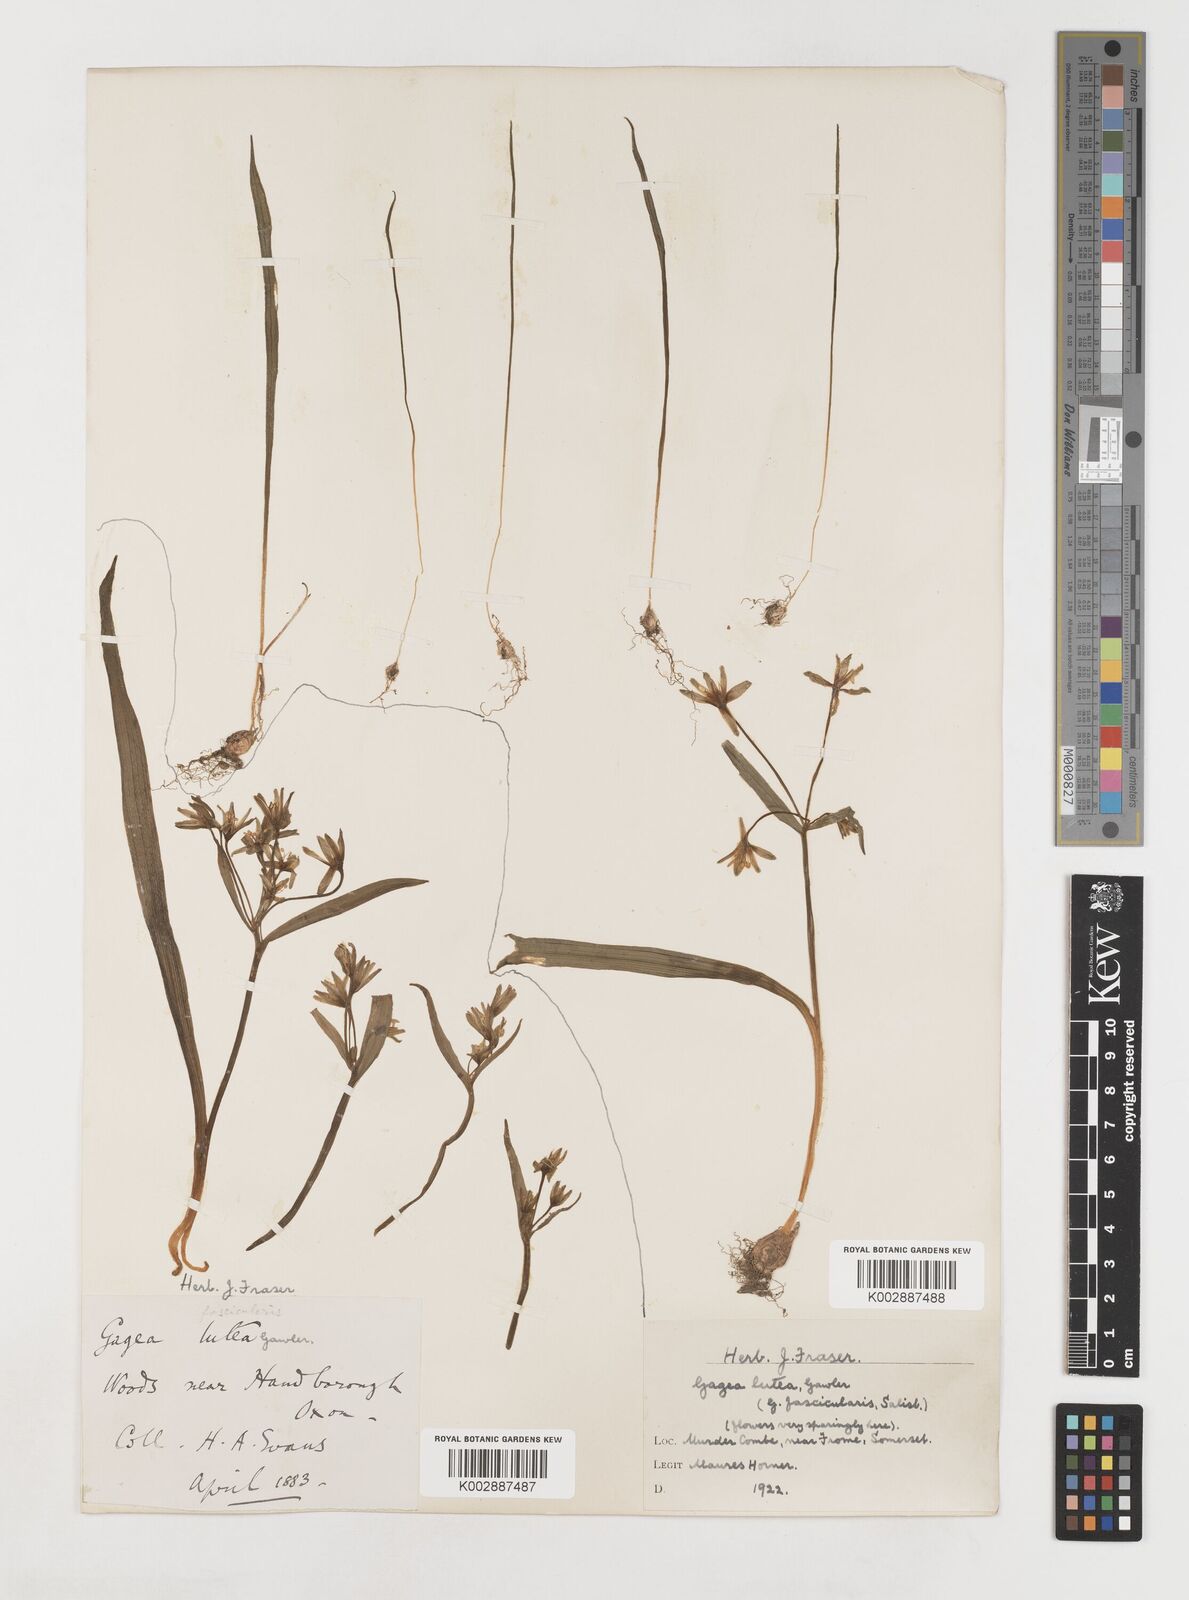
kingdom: Plantae
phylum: Tracheophyta
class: Liliopsida
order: Liliales
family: Liliaceae
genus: Gagea
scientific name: Gagea lutea
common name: Yellow star-of-bethlehem
